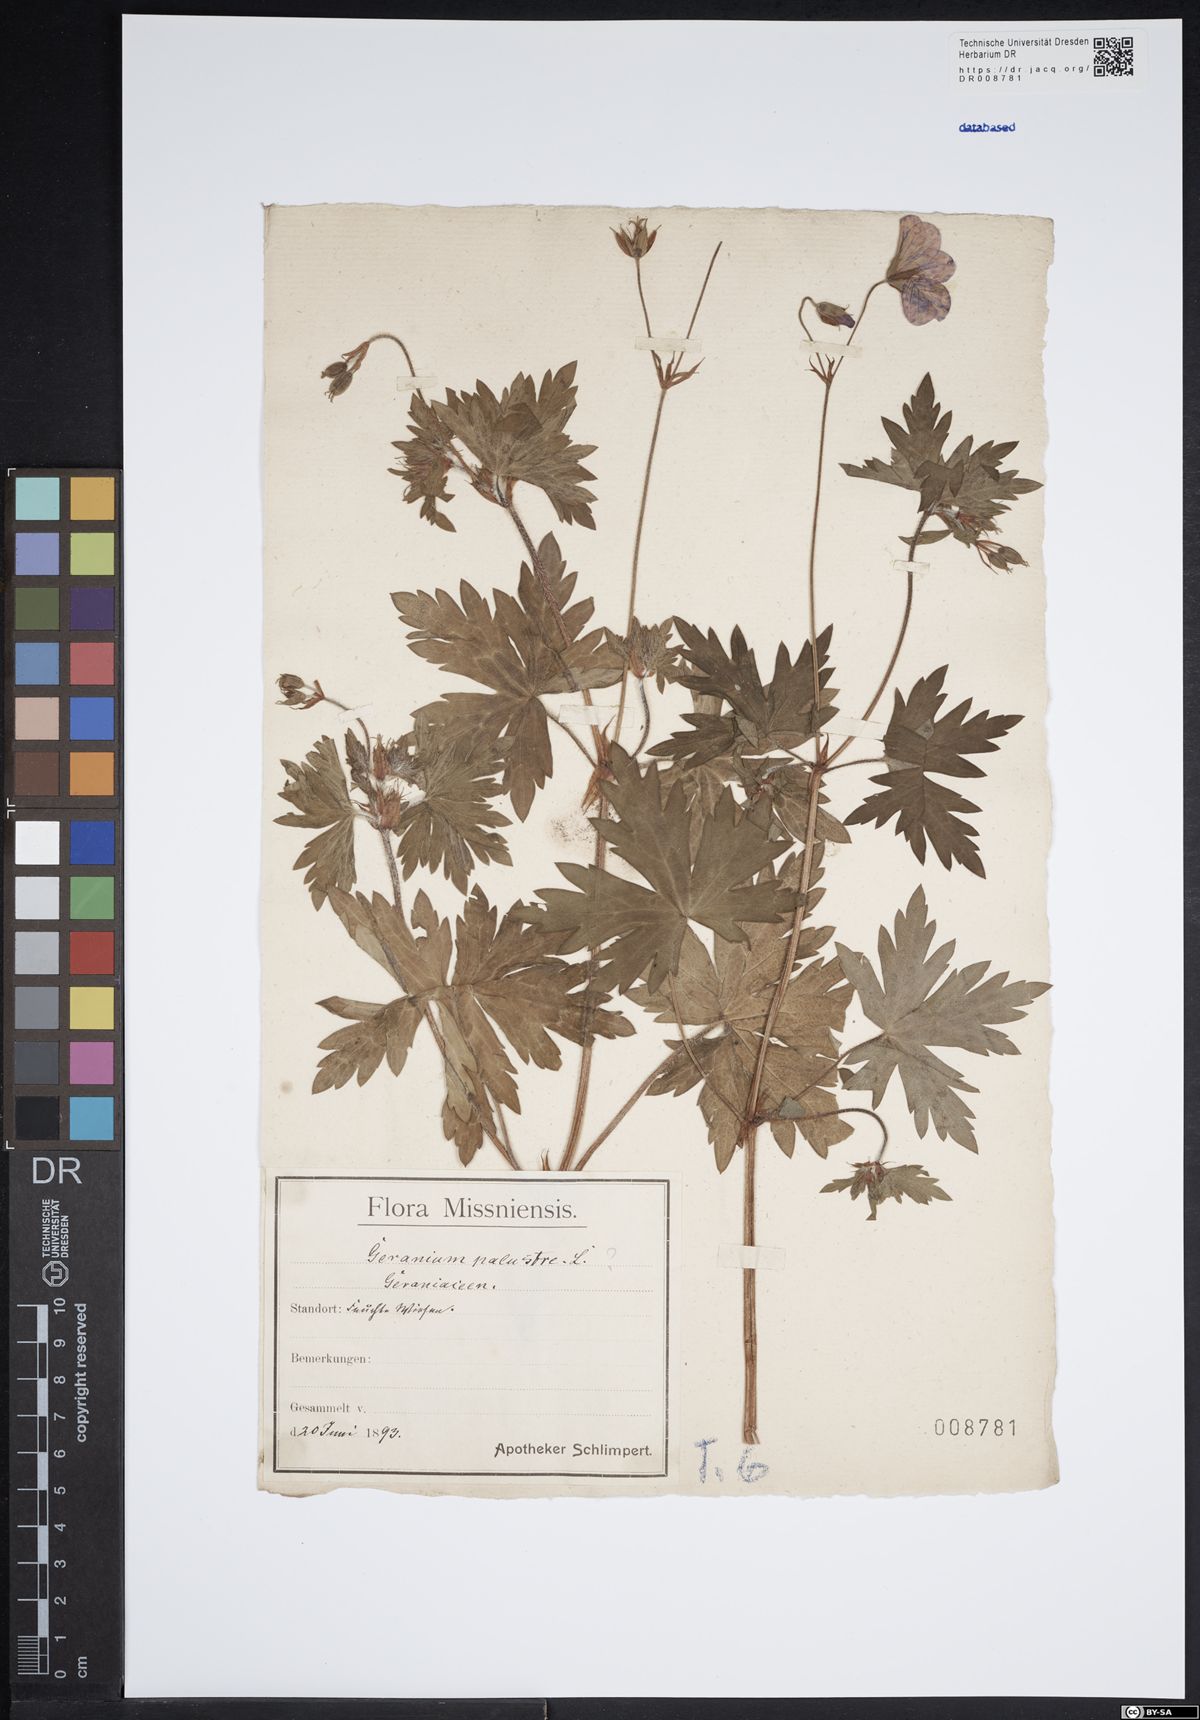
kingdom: Plantae
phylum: Tracheophyta
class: Magnoliopsida
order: Geraniales
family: Geraniaceae
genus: Geranium
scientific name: Geranium palustre
